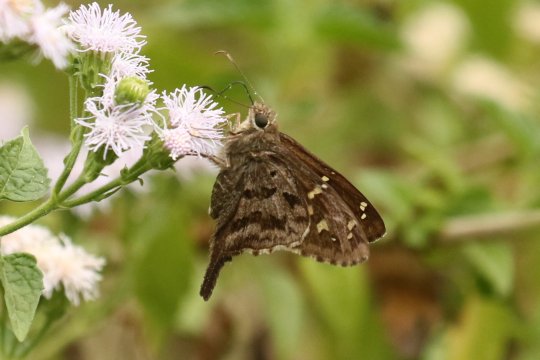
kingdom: Animalia
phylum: Arthropoda
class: Insecta
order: Lepidoptera
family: Hesperiidae
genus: Urbanus
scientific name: Urbanus dorantes
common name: Dorantes Longtail
